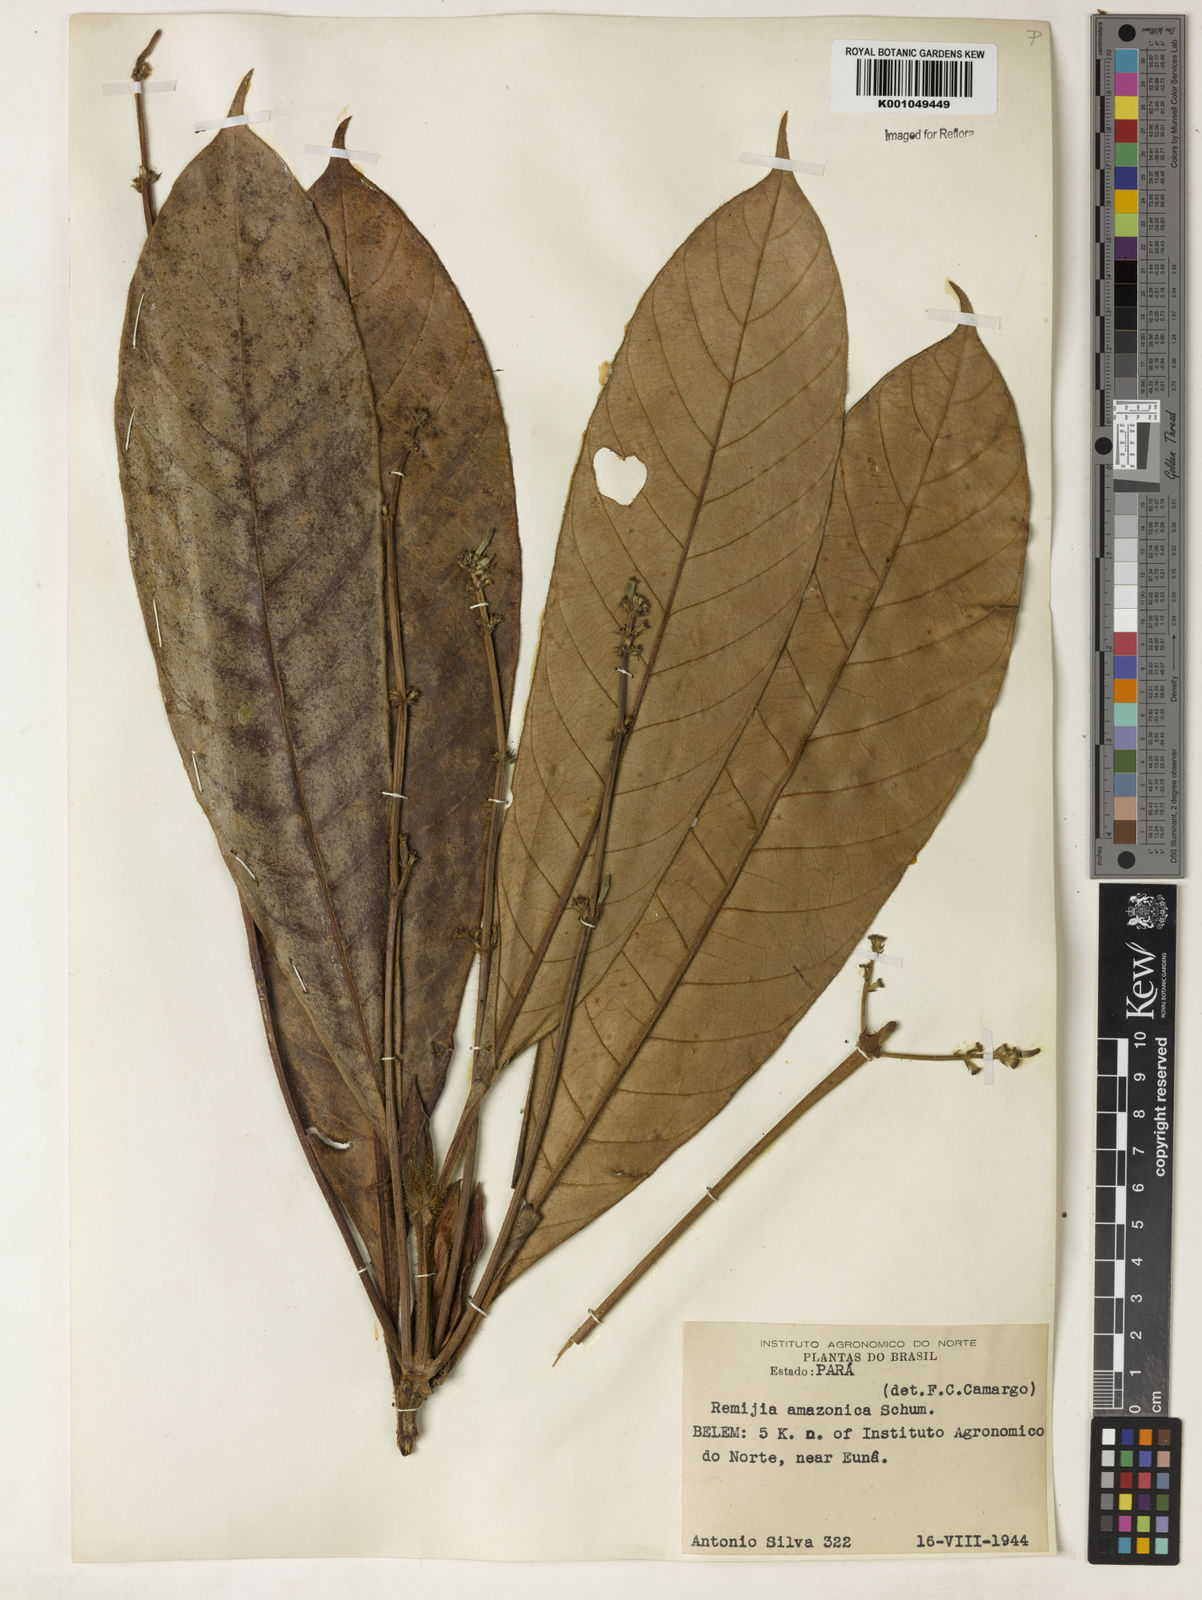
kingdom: Plantae
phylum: Tracheophyta
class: Magnoliopsida
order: Gentianales
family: Rubiaceae
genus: Remijia
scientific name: Remijia amazonica
